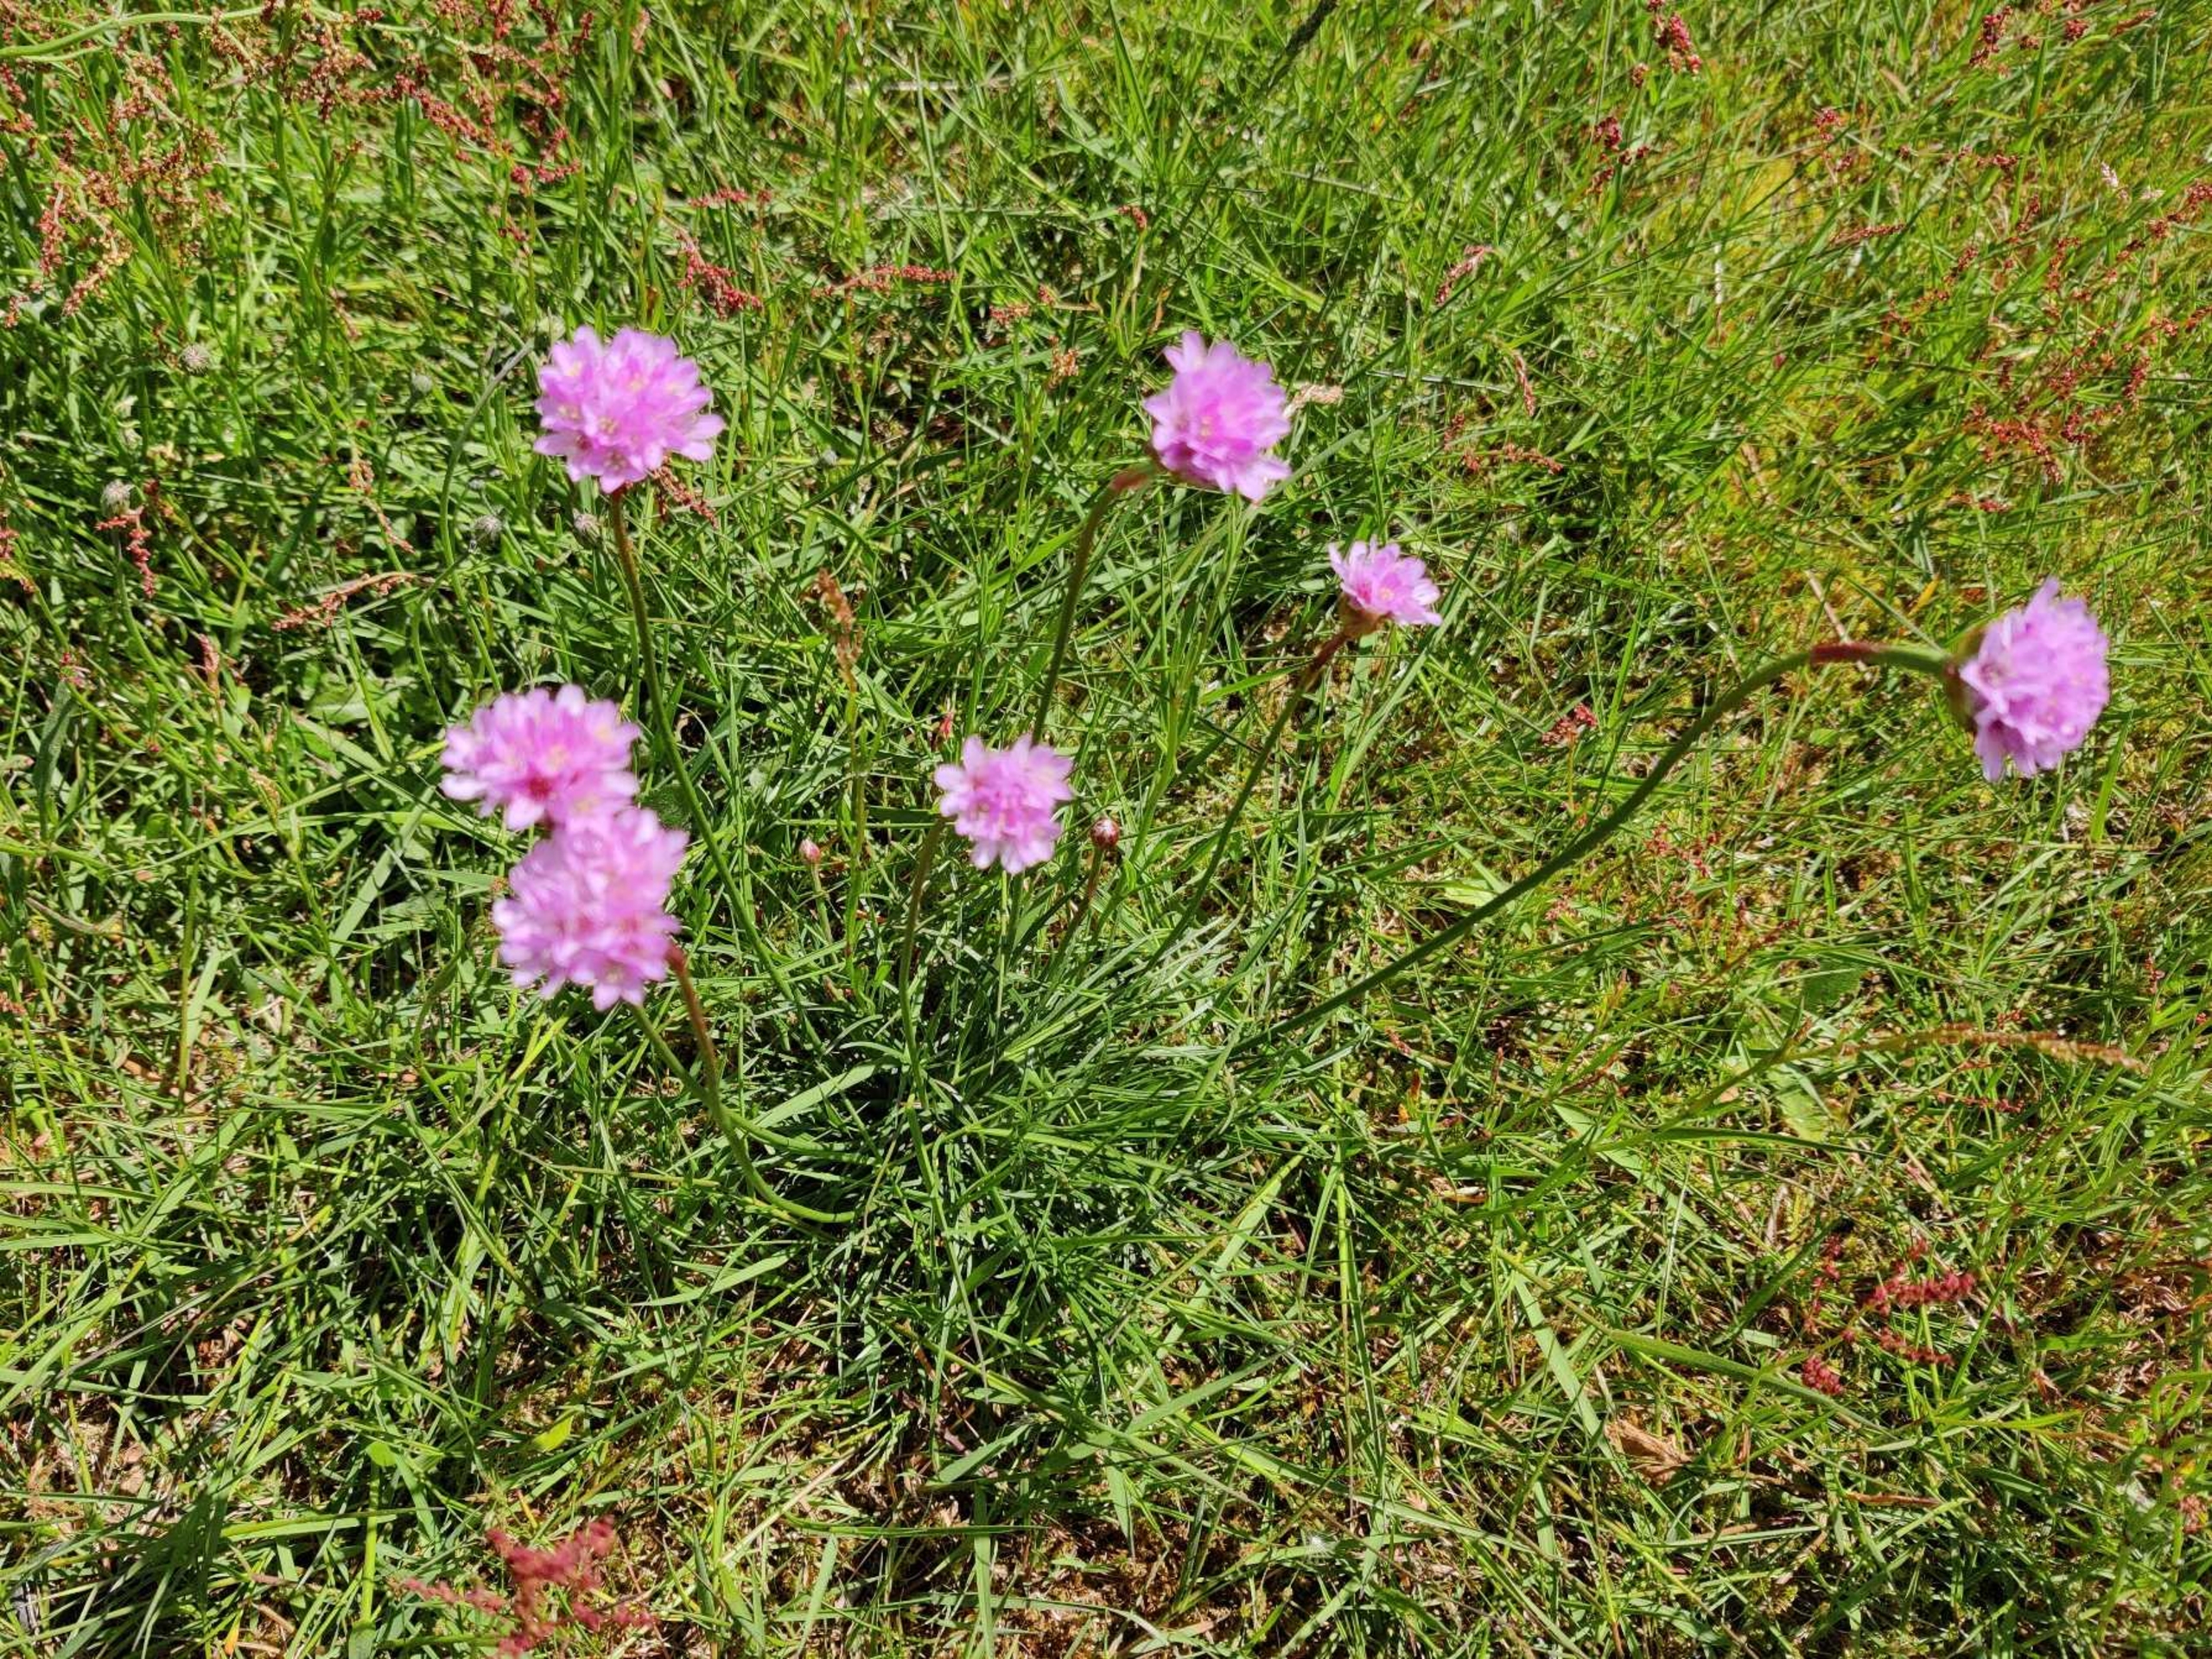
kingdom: Plantae
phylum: Tracheophyta
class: Magnoliopsida
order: Caryophyllales
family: Plumbaginaceae
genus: Armeria
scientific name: Armeria maritima
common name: Engelskgræs
